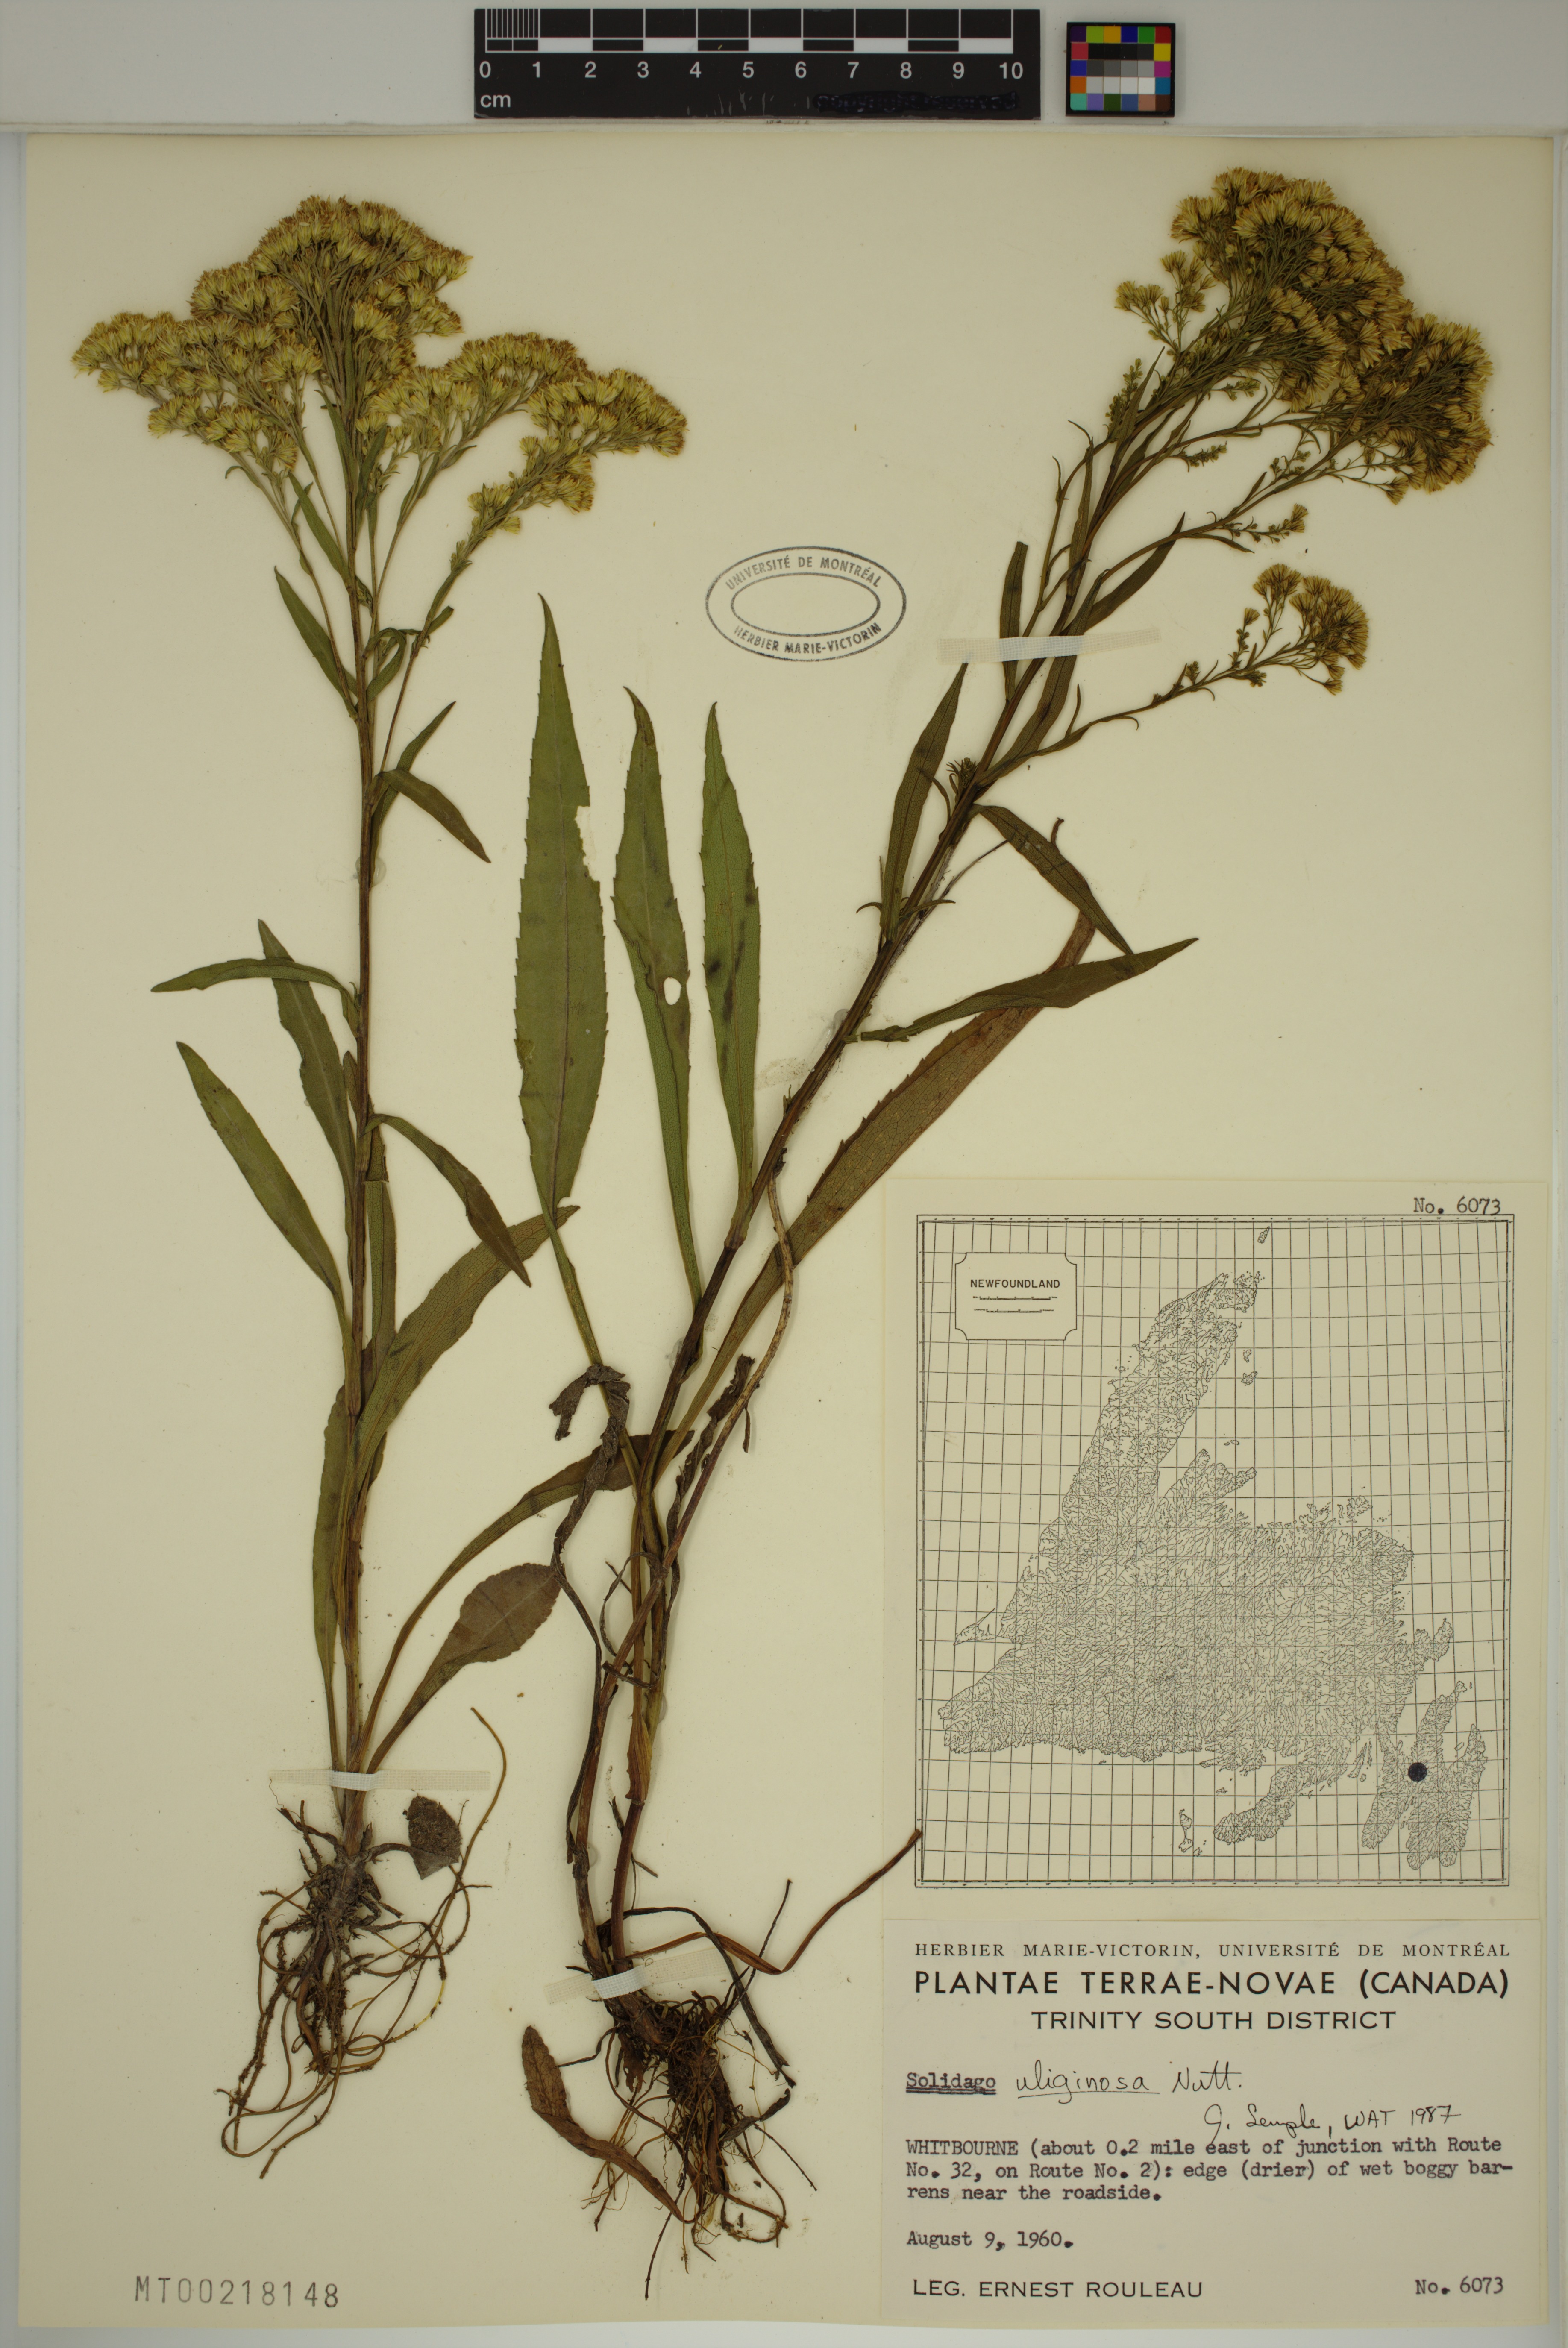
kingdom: Plantae
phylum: Tracheophyta
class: Magnoliopsida
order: Asterales
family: Asteraceae
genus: Solidago
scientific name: Solidago uliginosa
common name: Bog goldenrod
